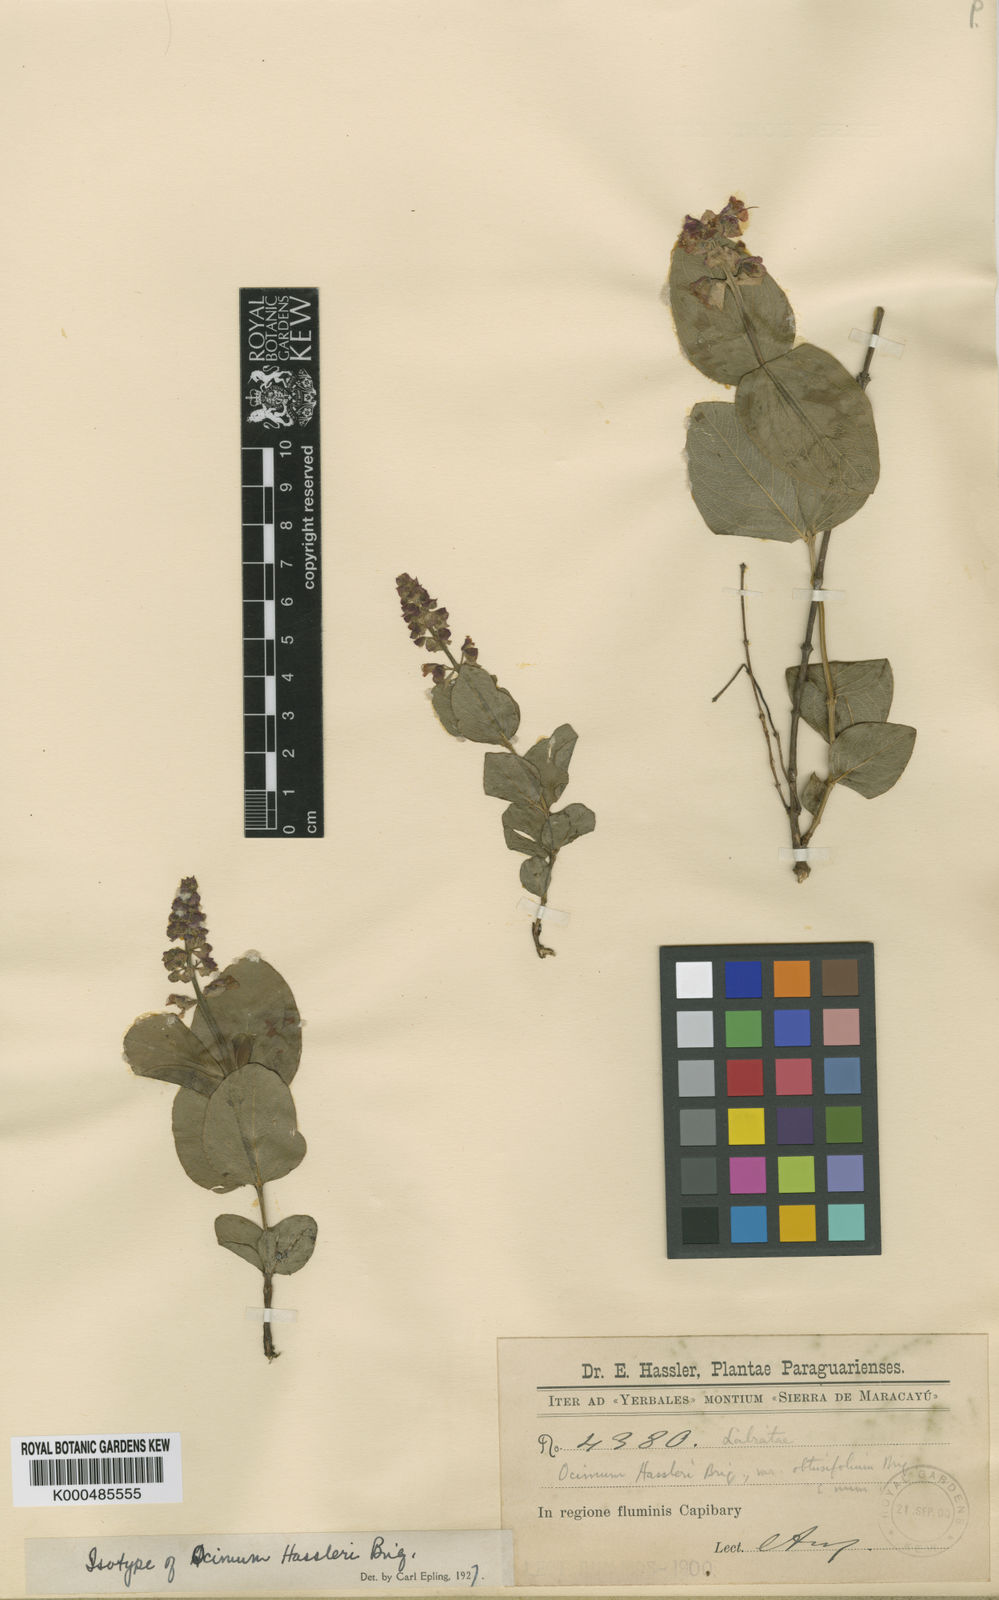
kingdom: Plantae
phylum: Tracheophyta
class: Magnoliopsida
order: Lamiales
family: Lamiaceae
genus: Ocimum
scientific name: Ocimum ovatum
